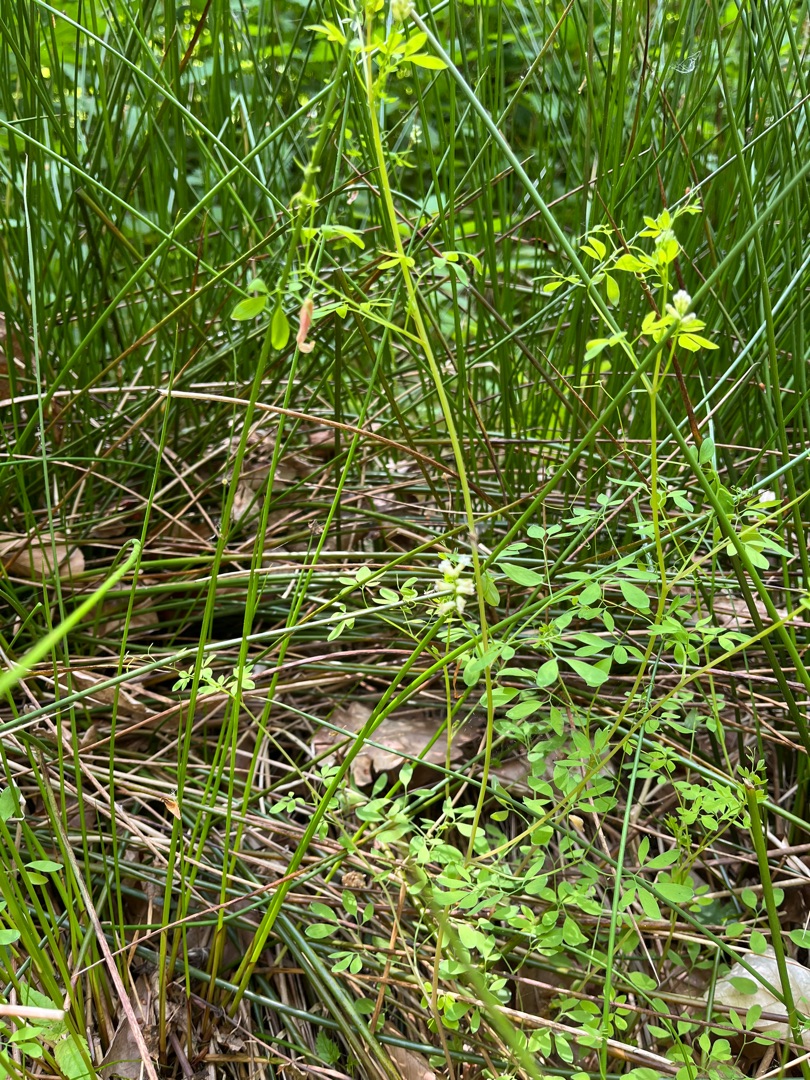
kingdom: Plantae
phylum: Tracheophyta
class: Magnoliopsida
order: Ranunculales
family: Papaveraceae
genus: Ceratocapnos
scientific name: Ceratocapnos claviculata
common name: Klatrende lærkespore
